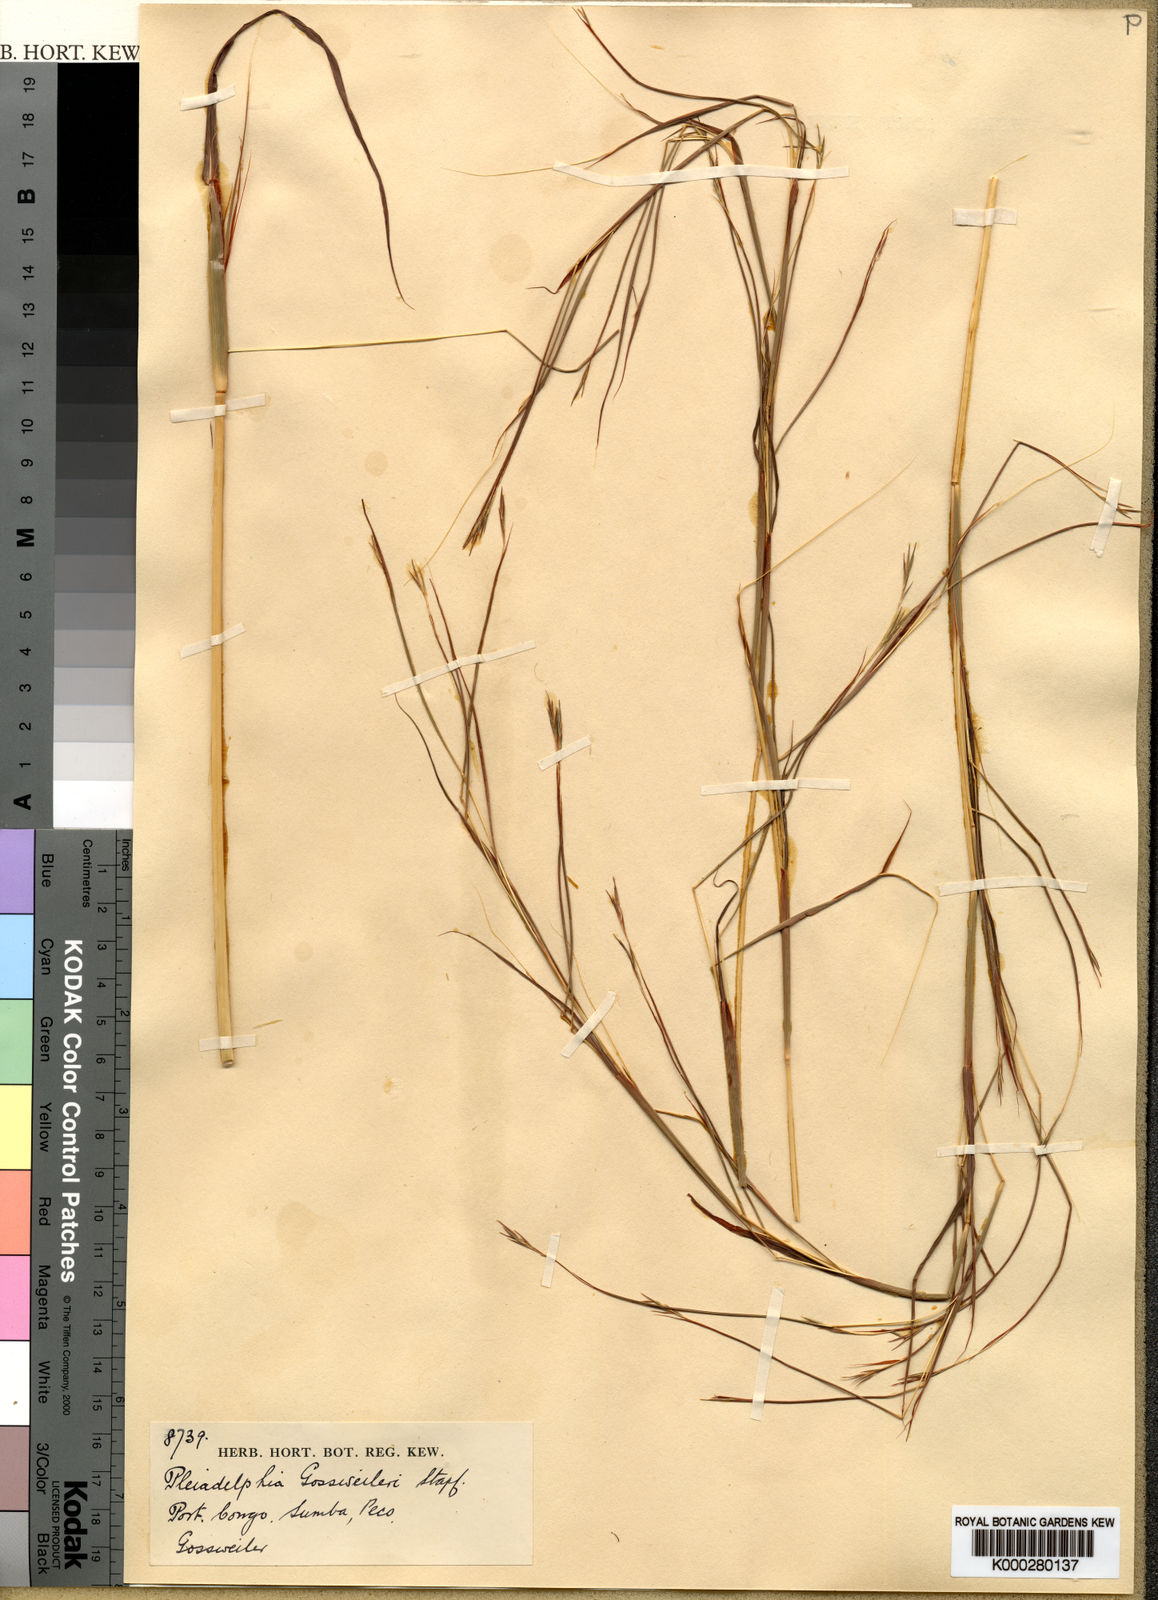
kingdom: Plantae
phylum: Tracheophyta
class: Liliopsida
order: Poales
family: Poaceae
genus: Elymandra
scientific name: Elymandra gossweileri
